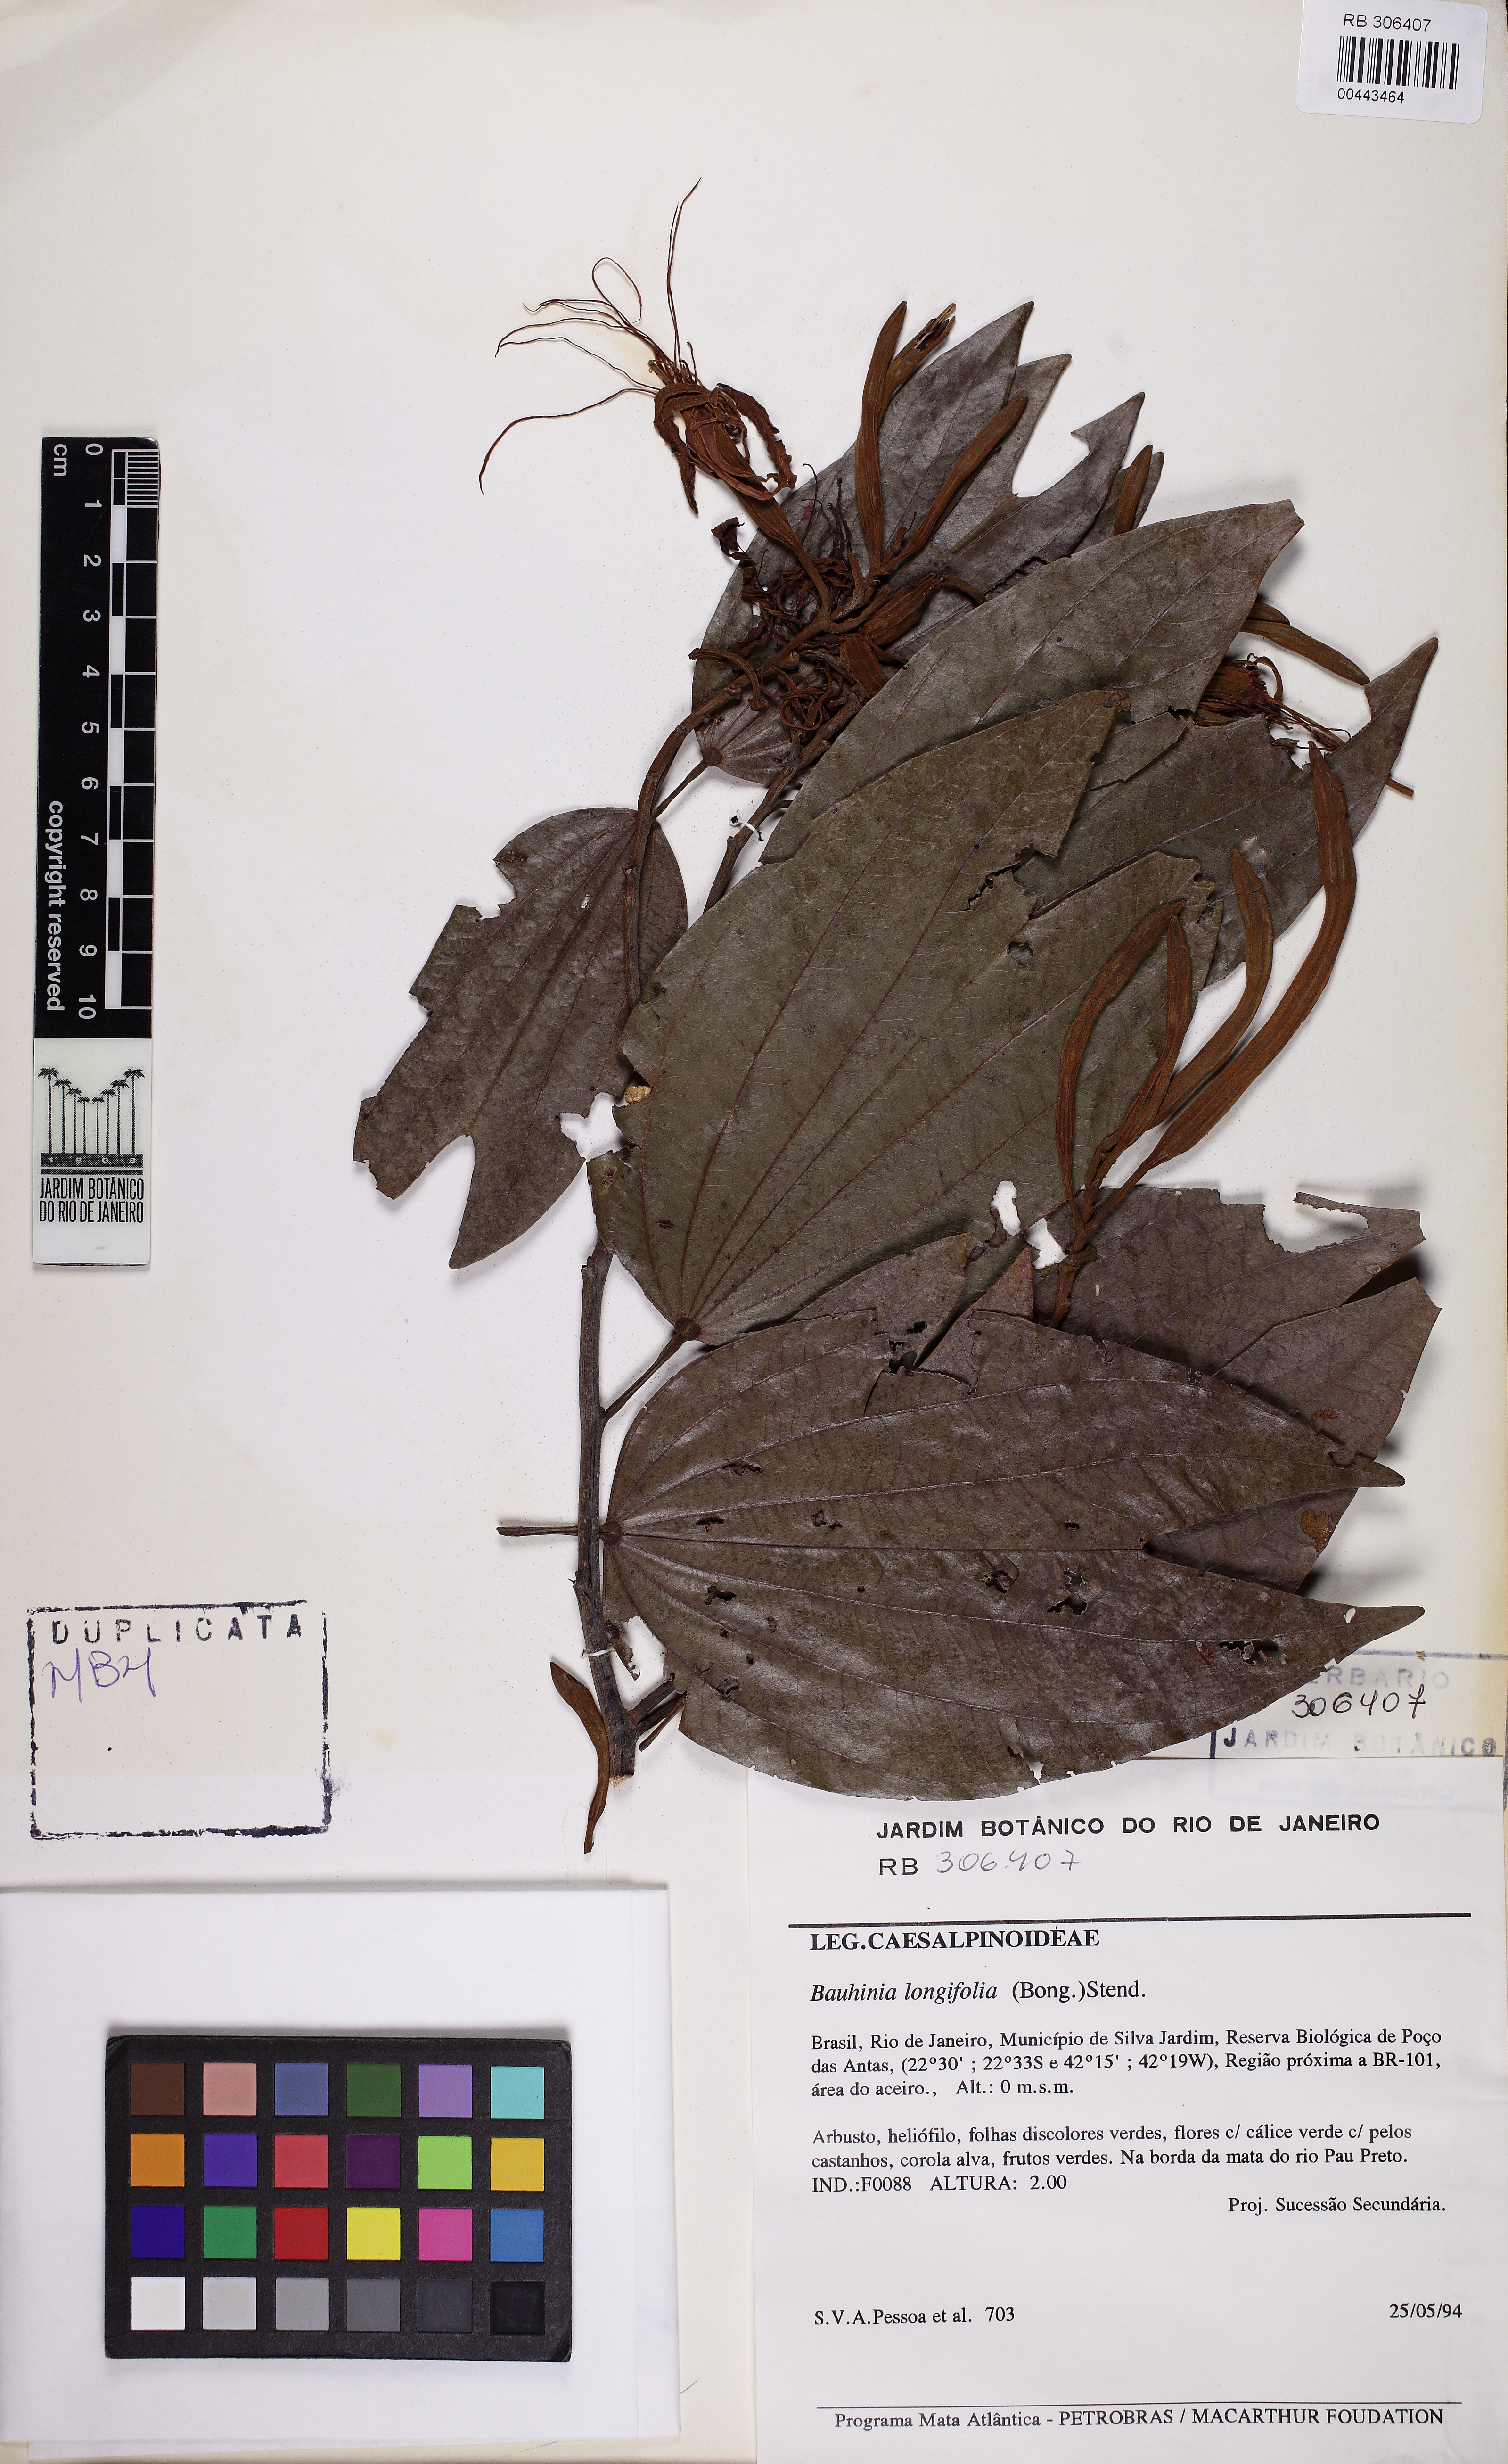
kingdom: Plantae
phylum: Tracheophyta
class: Magnoliopsida
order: Fabales
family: Fabaceae
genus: Bauhinia
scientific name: Bauhinia longifolia
